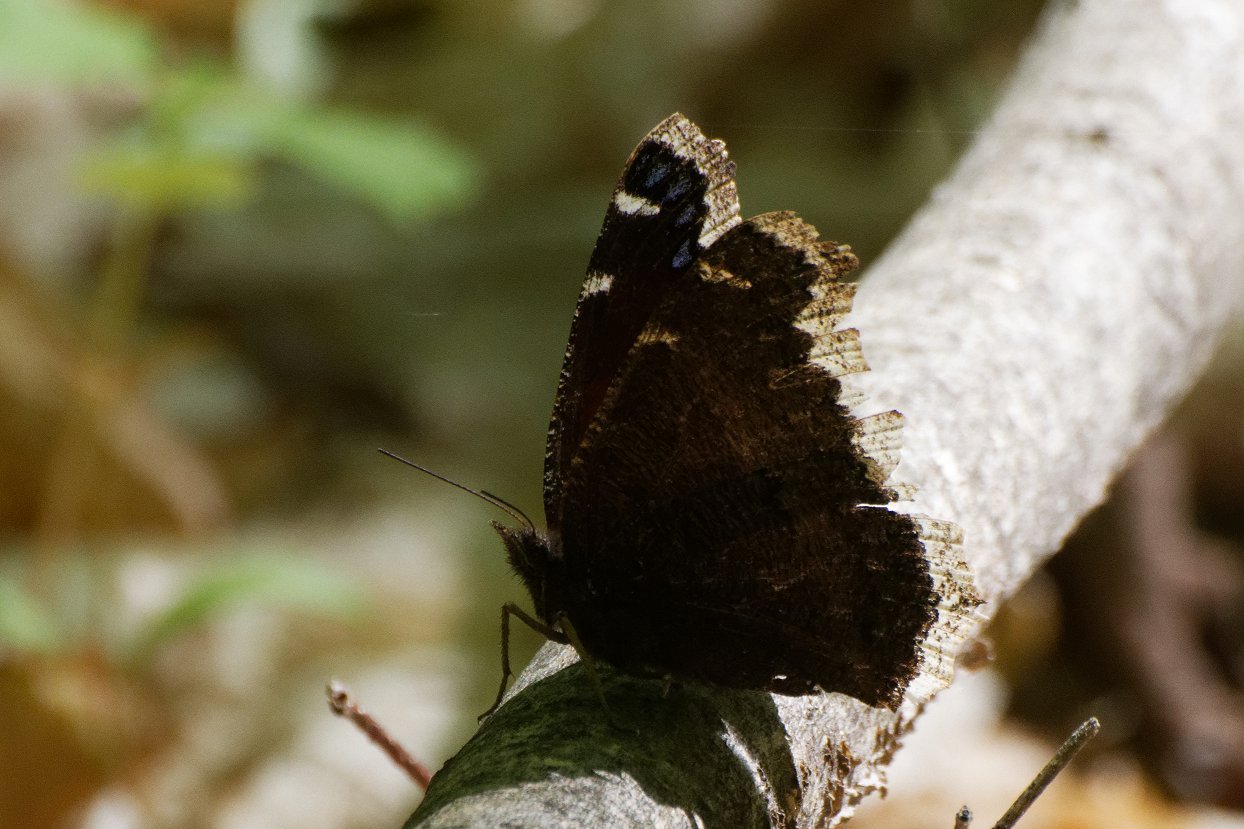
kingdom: Animalia
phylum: Arthropoda
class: Insecta
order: Lepidoptera
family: Nymphalidae
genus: Nymphalis
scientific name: Nymphalis antiopa
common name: Mourning Cloak
